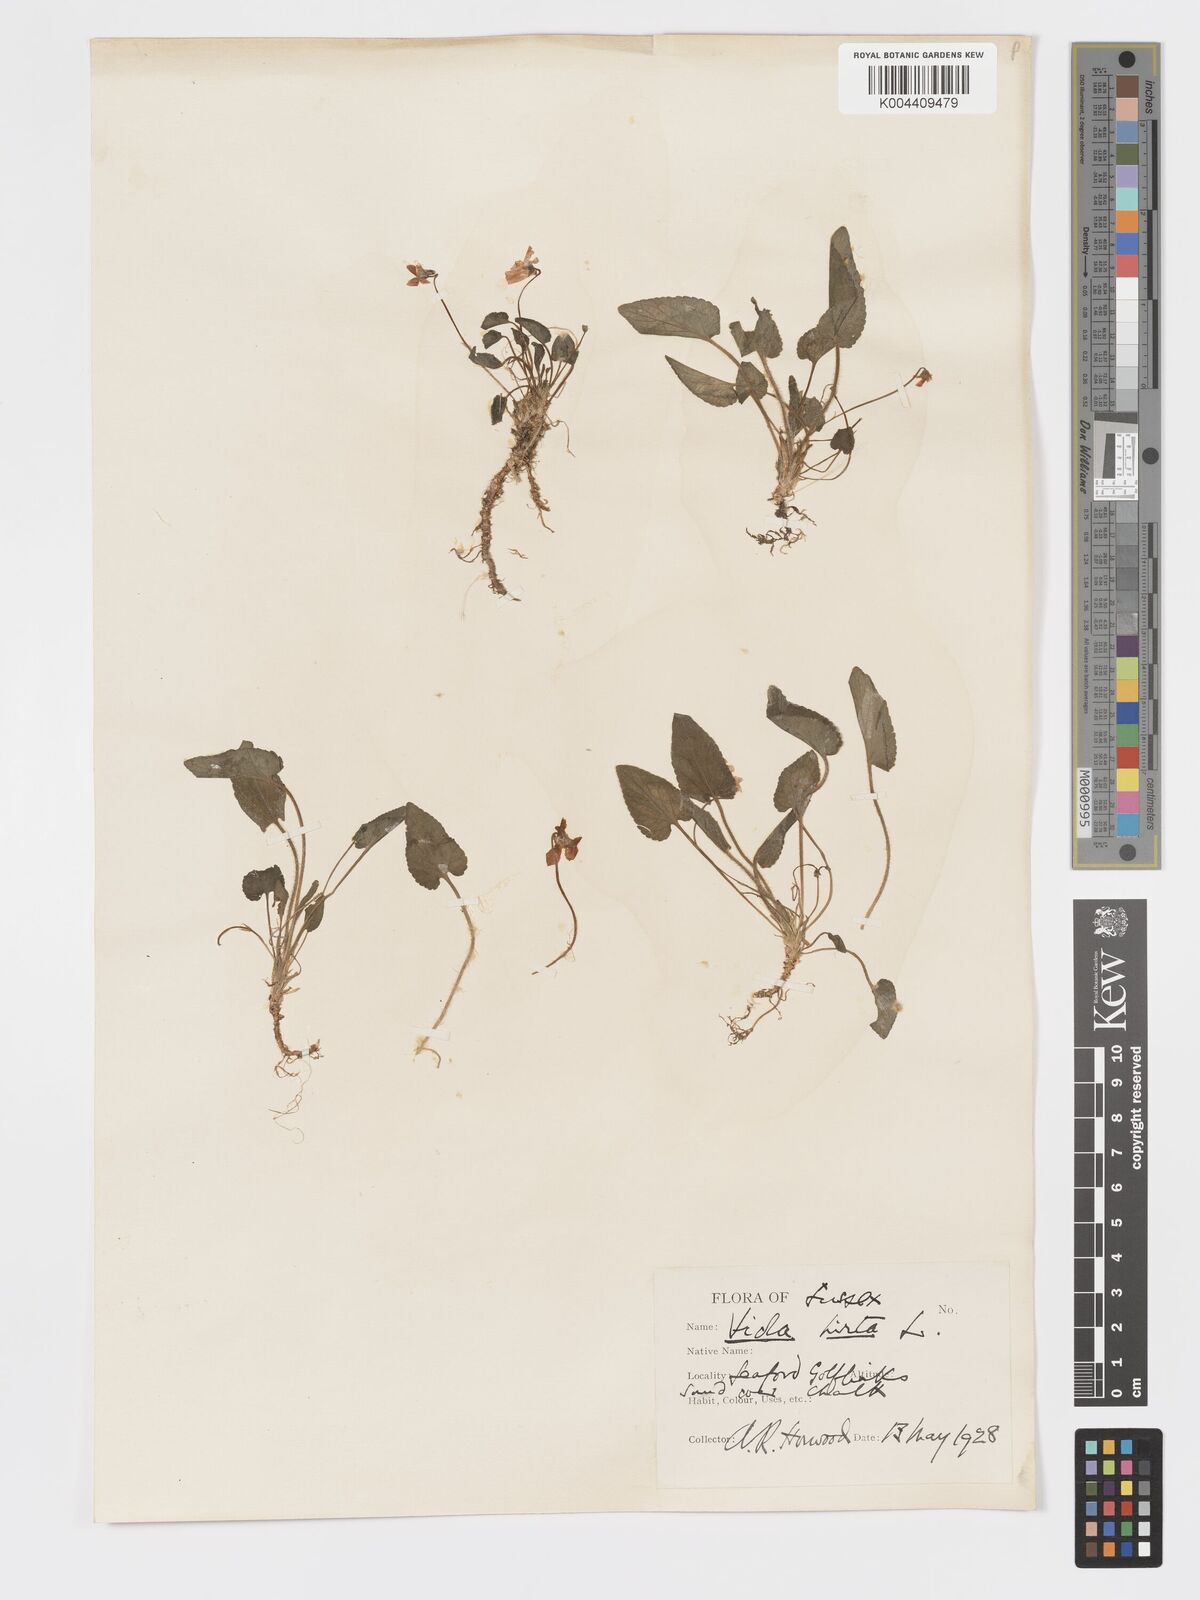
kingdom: Plantae
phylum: Tracheophyta
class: Magnoliopsida
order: Malpighiales
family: Violaceae
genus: Viola
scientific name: Viola
